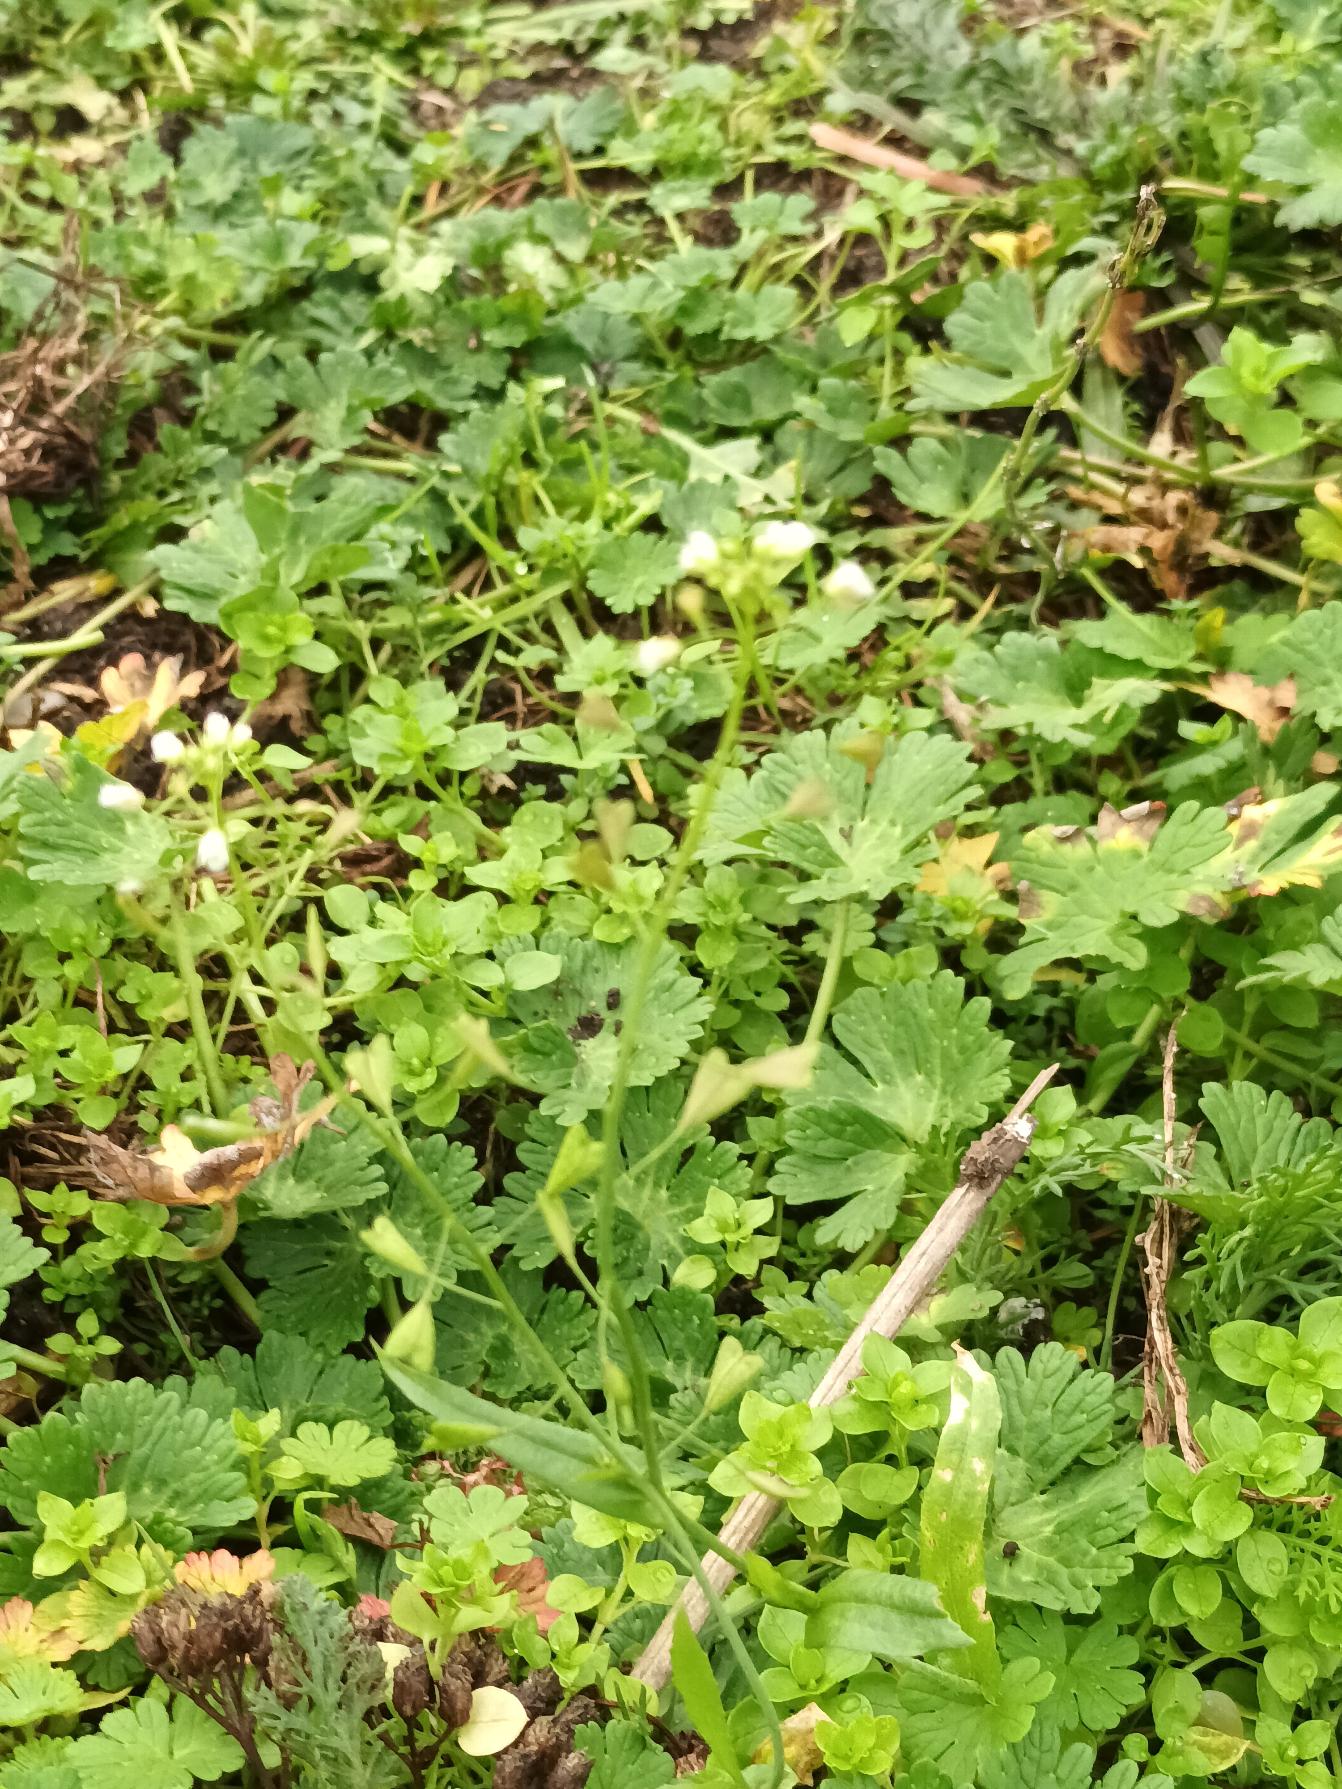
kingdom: Plantae
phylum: Tracheophyta
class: Magnoliopsida
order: Brassicales
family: Brassicaceae
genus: Capsella
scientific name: Capsella bursa-pastoris
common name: Hyrdetaske
